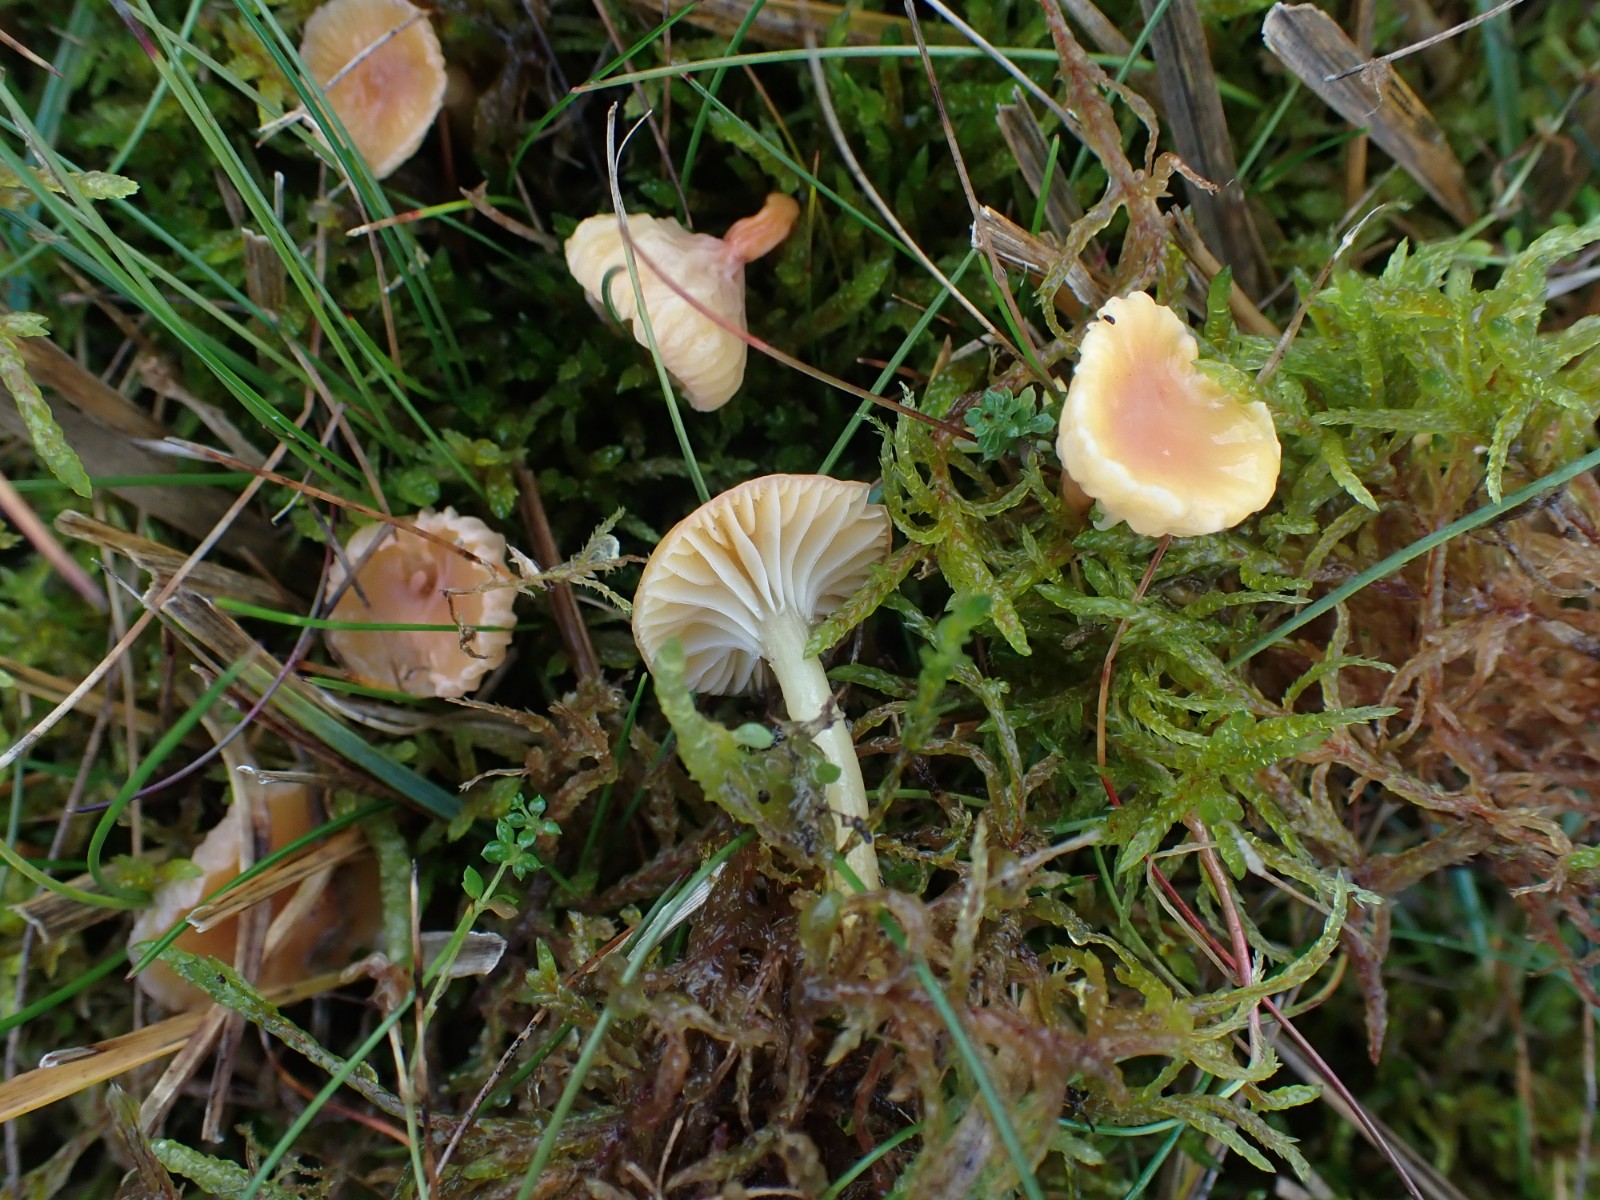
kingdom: Fungi
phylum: Basidiomycota
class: Agaricomycetes
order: Agaricales
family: Hygrophoraceae
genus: Gliophorus
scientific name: Gliophorus laetus
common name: brusk-vokshat
